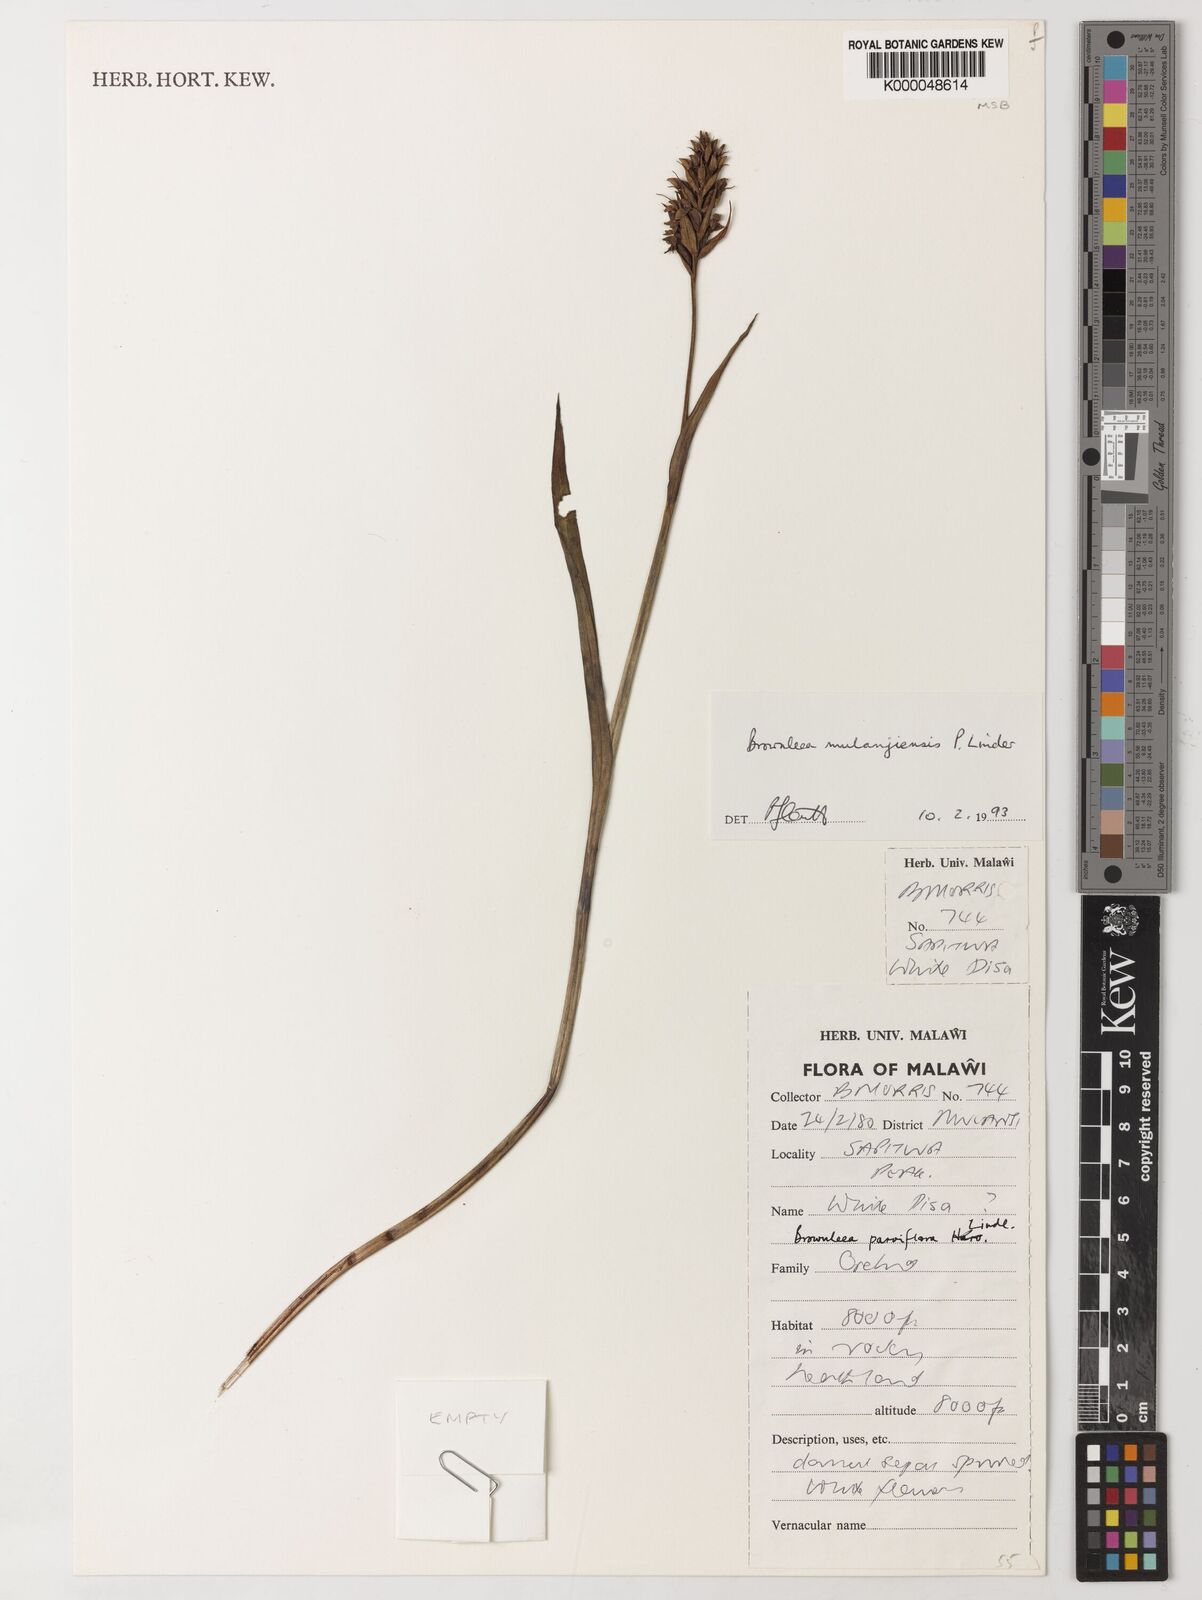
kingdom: Plantae
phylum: Tracheophyta
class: Liliopsida
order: Asparagales
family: Orchidaceae
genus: Brownleea
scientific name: Brownleea mulanjiensis
